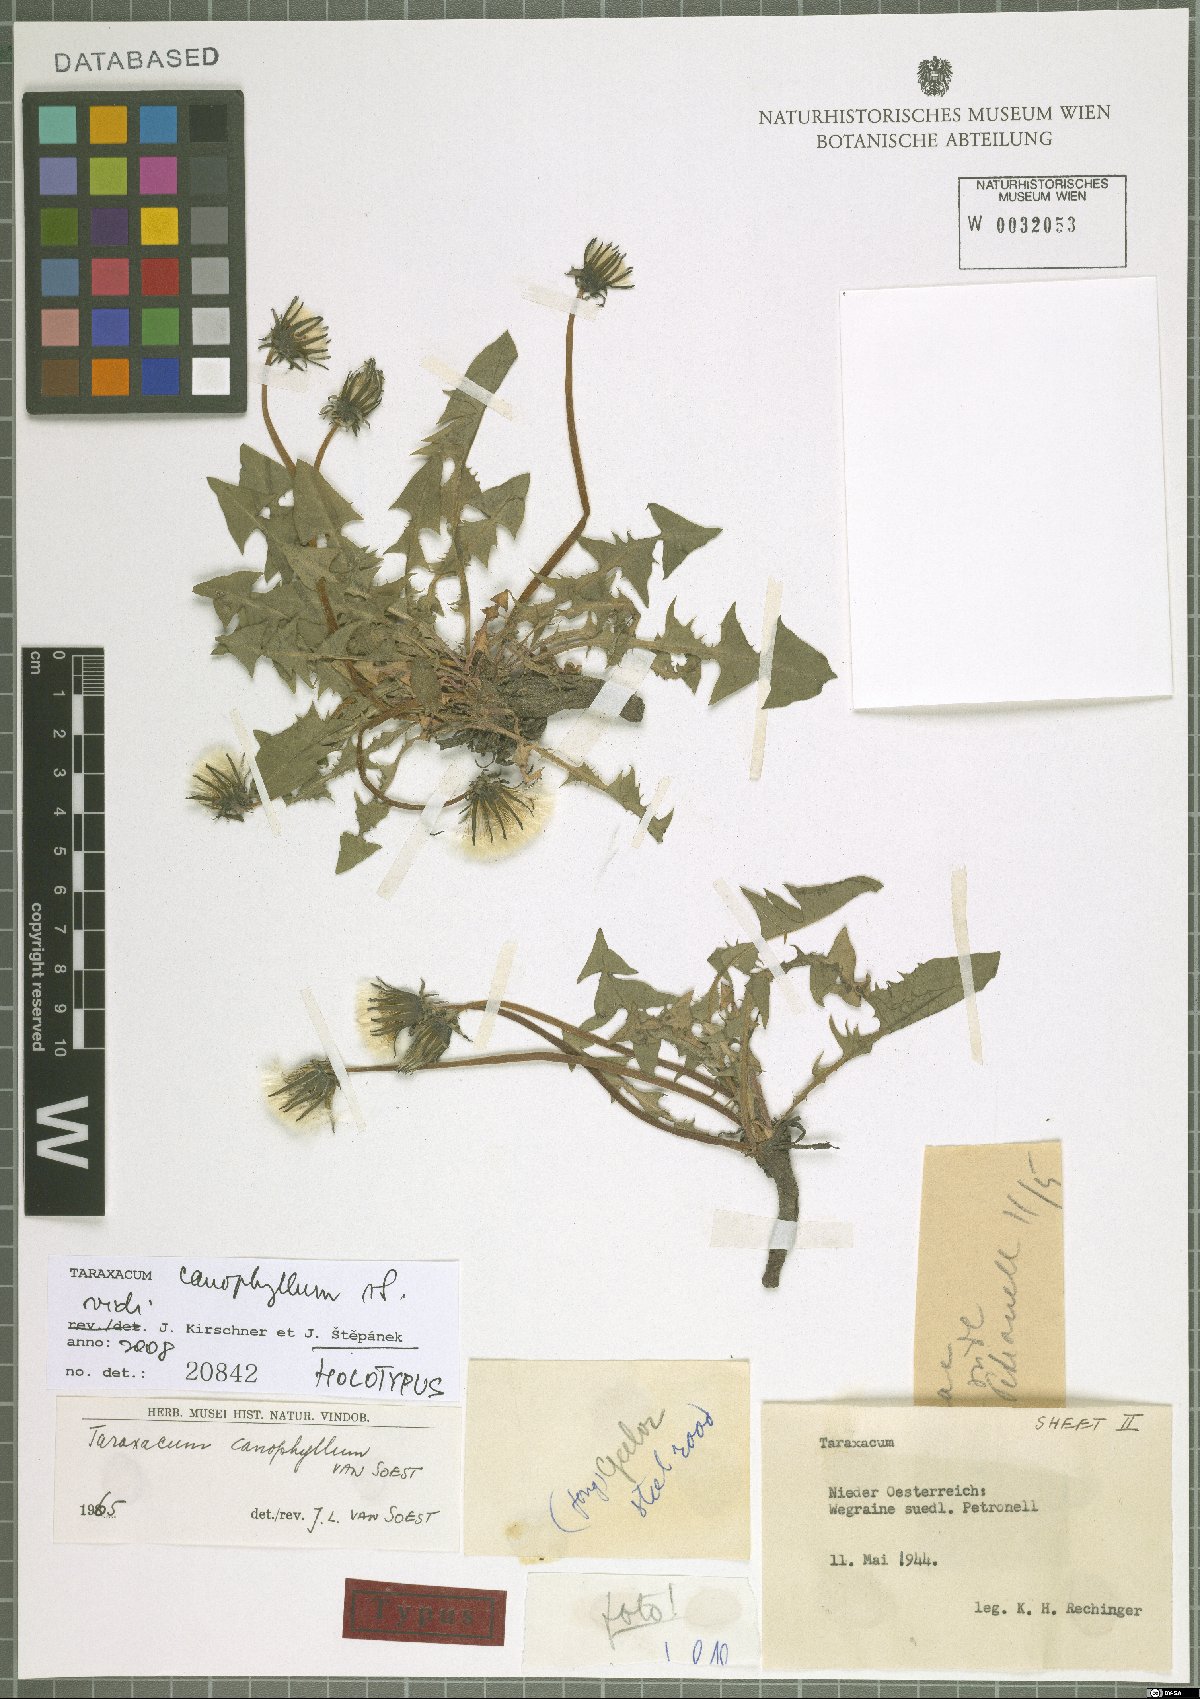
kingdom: Plantae
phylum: Tracheophyta
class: Magnoliopsida
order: Asterales
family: Asteraceae
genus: Taraxacum
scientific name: Taraxacum canophyllum
